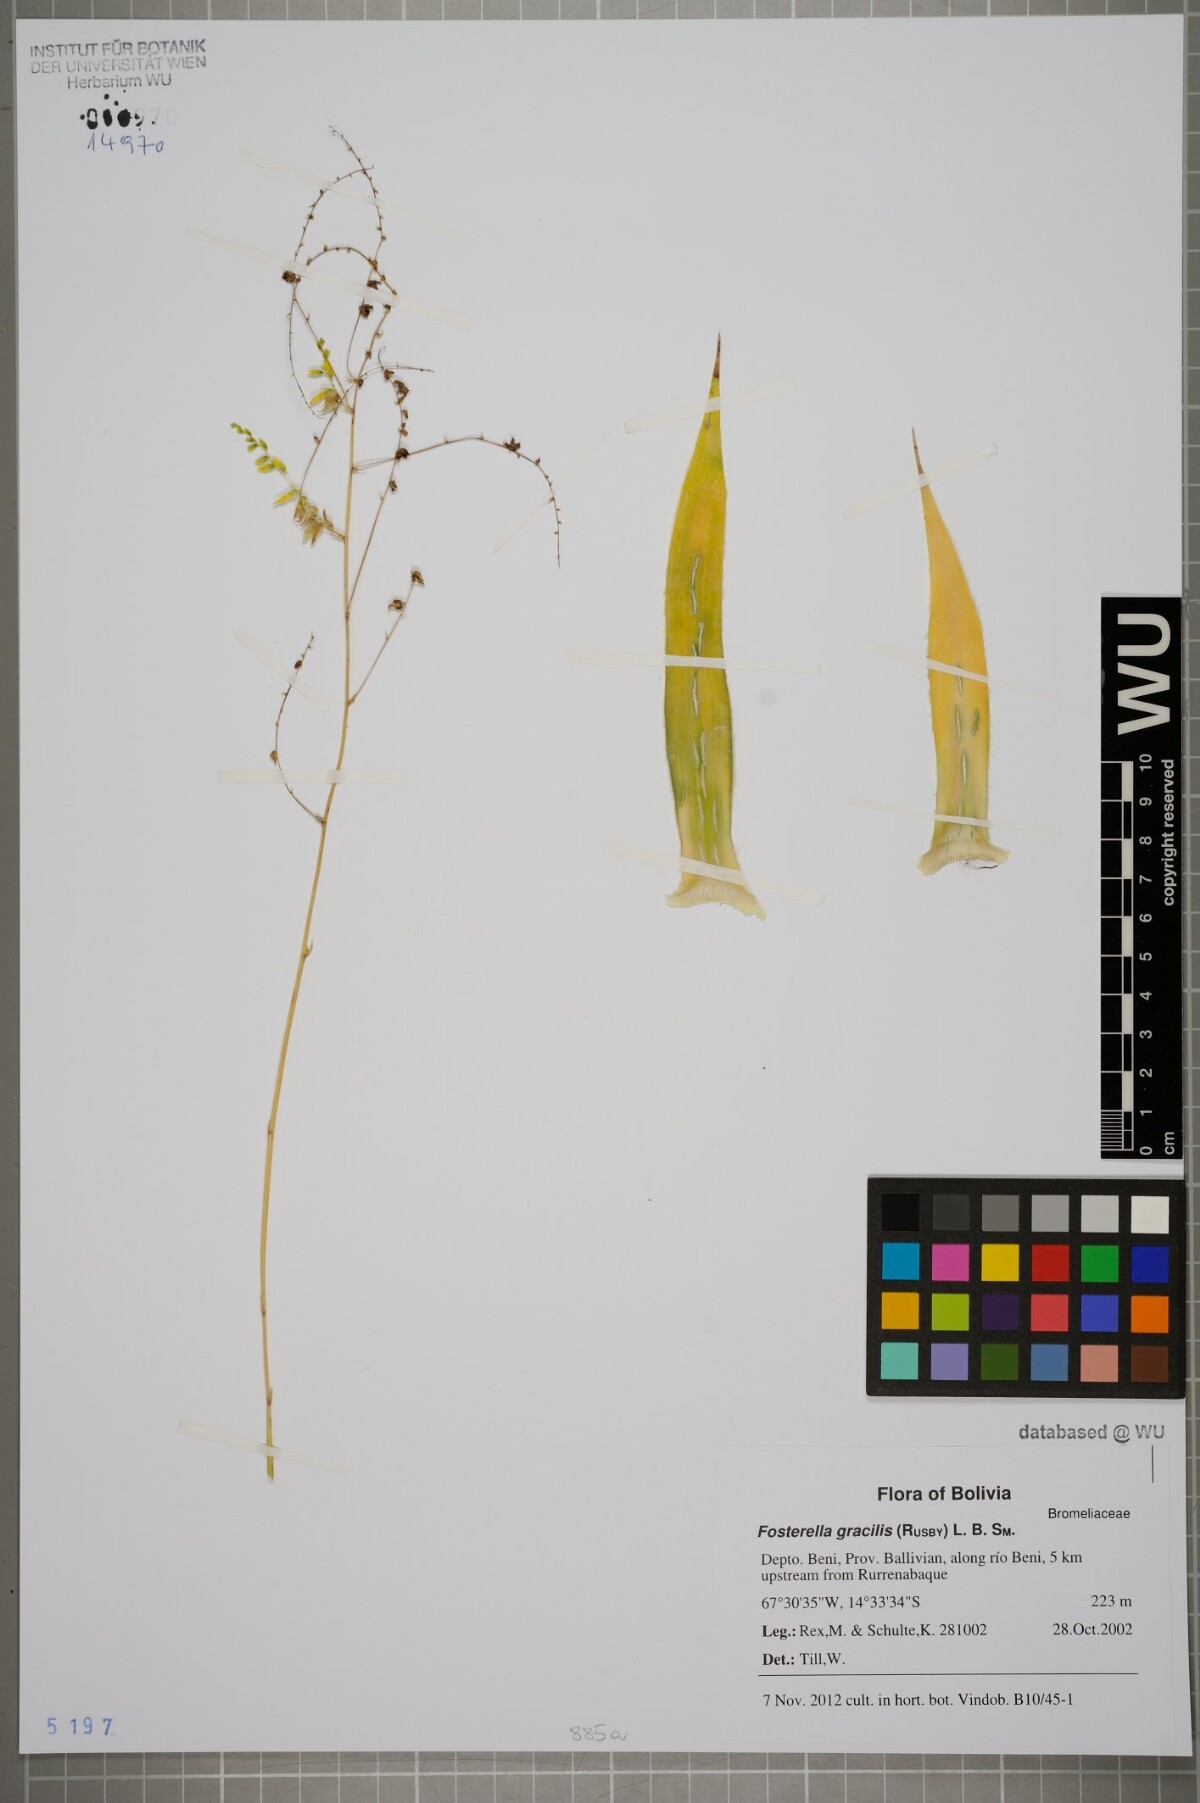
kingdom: Plantae
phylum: Tracheophyta
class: Liliopsida
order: Poales
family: Bromeliaceae
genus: Fosterella
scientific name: Fosterella gracilis
